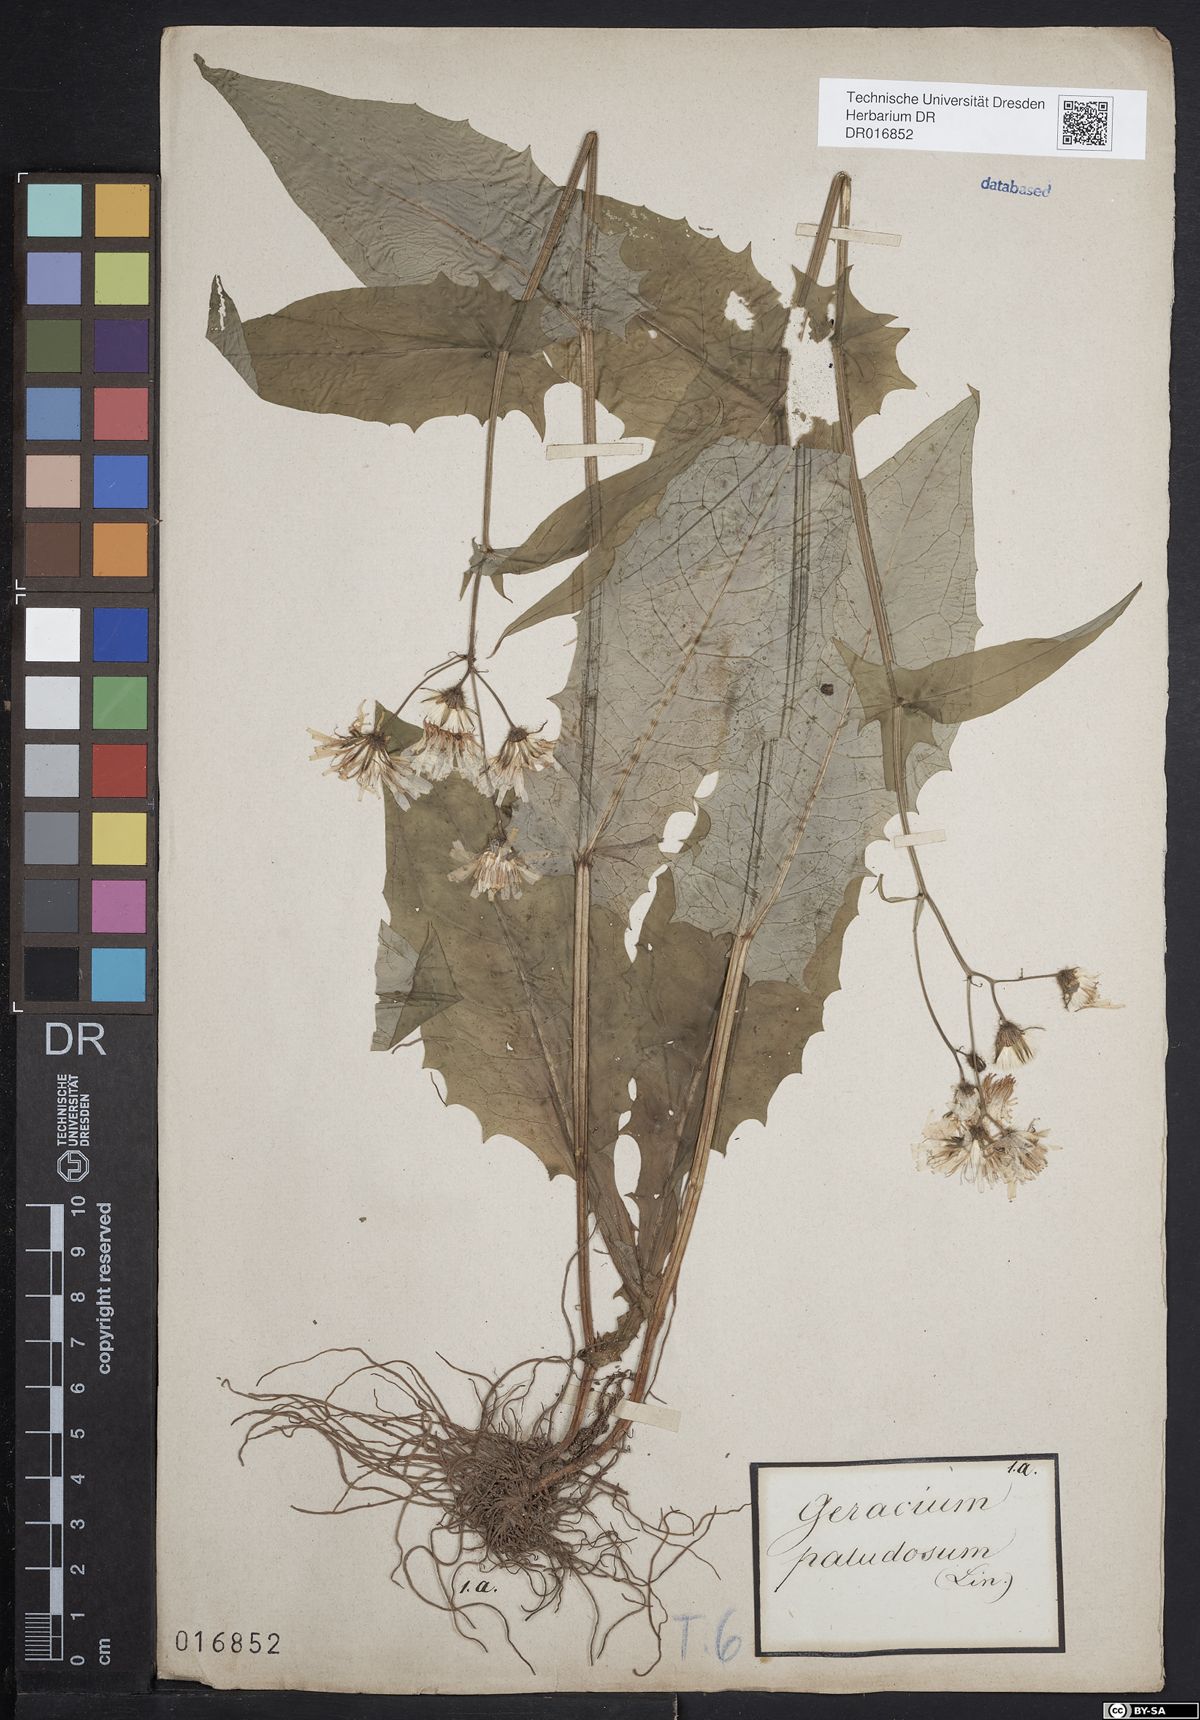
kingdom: Plantae
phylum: Tracheophyta
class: Magnoliopsida
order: Asterales
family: Asteraceae
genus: Crepis
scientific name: Crepis paludosa
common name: Marsh hawk's-beard
